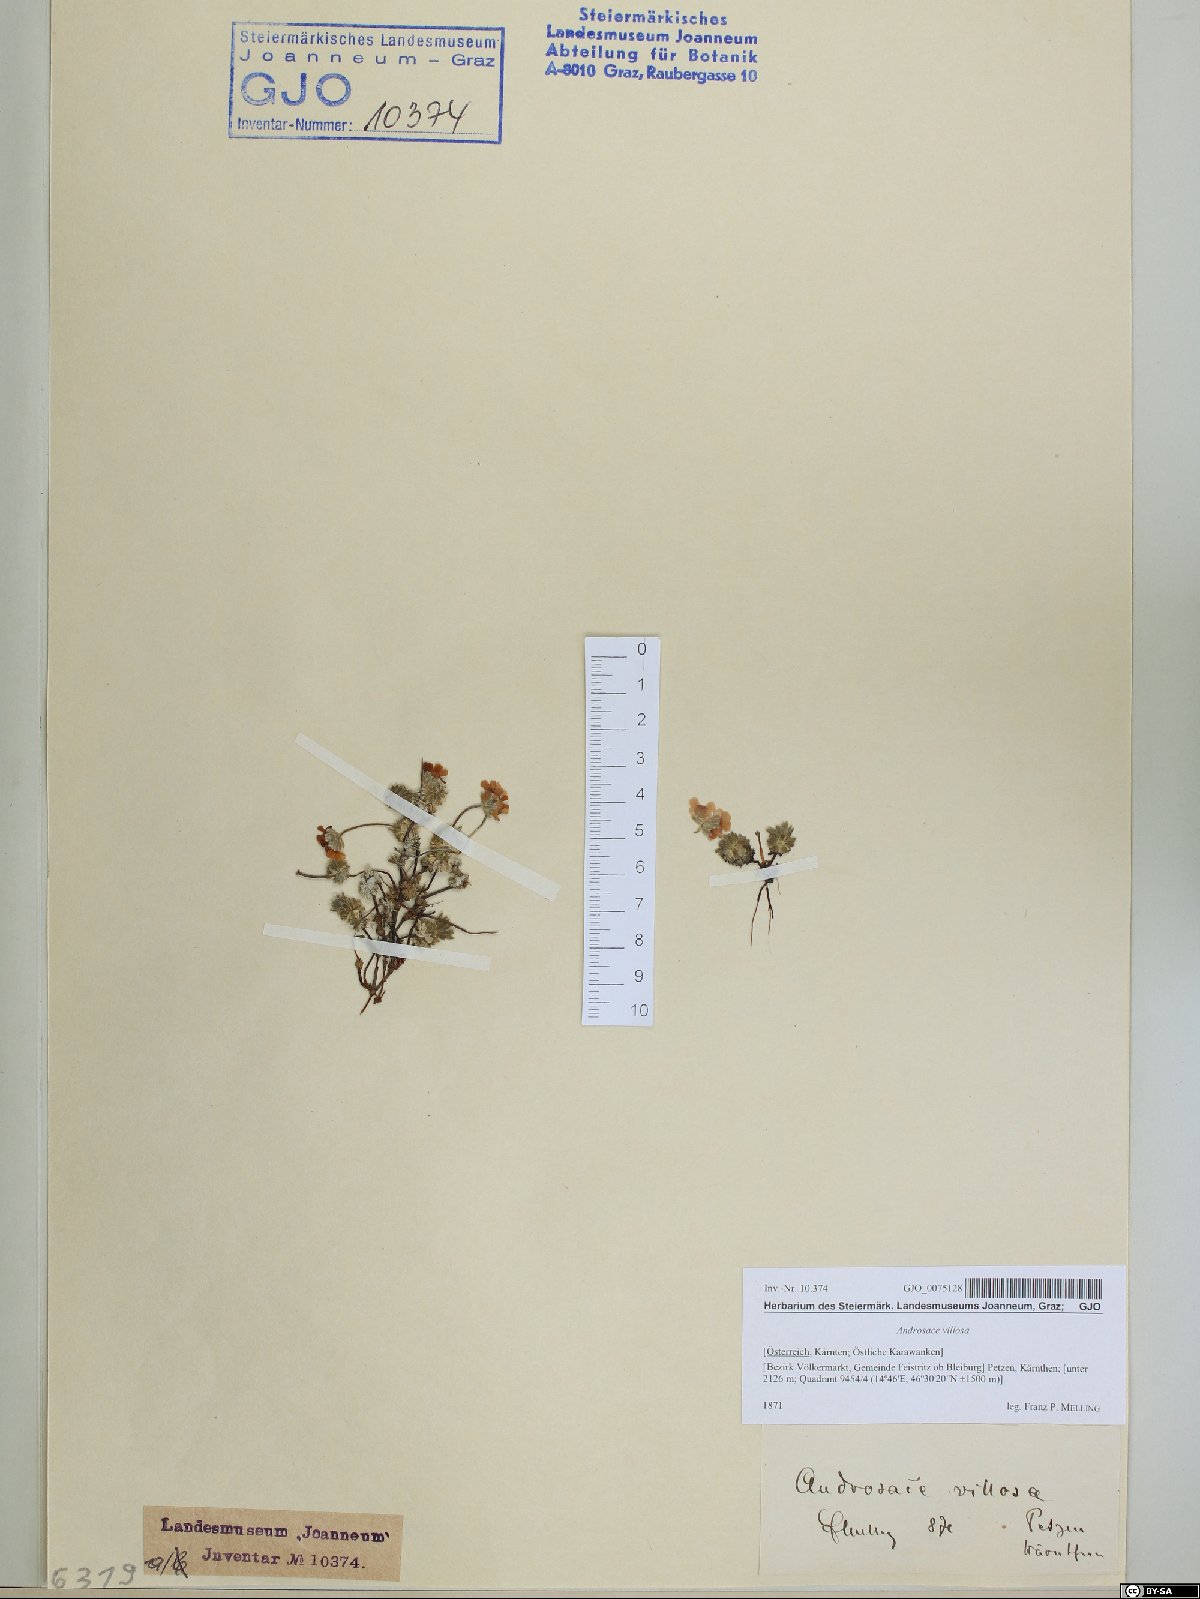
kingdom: Plantae
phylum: Tracheophyta
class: Magnoliopsida
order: Ericales
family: Primulaceae
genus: Androsace
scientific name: Androsace villosa
